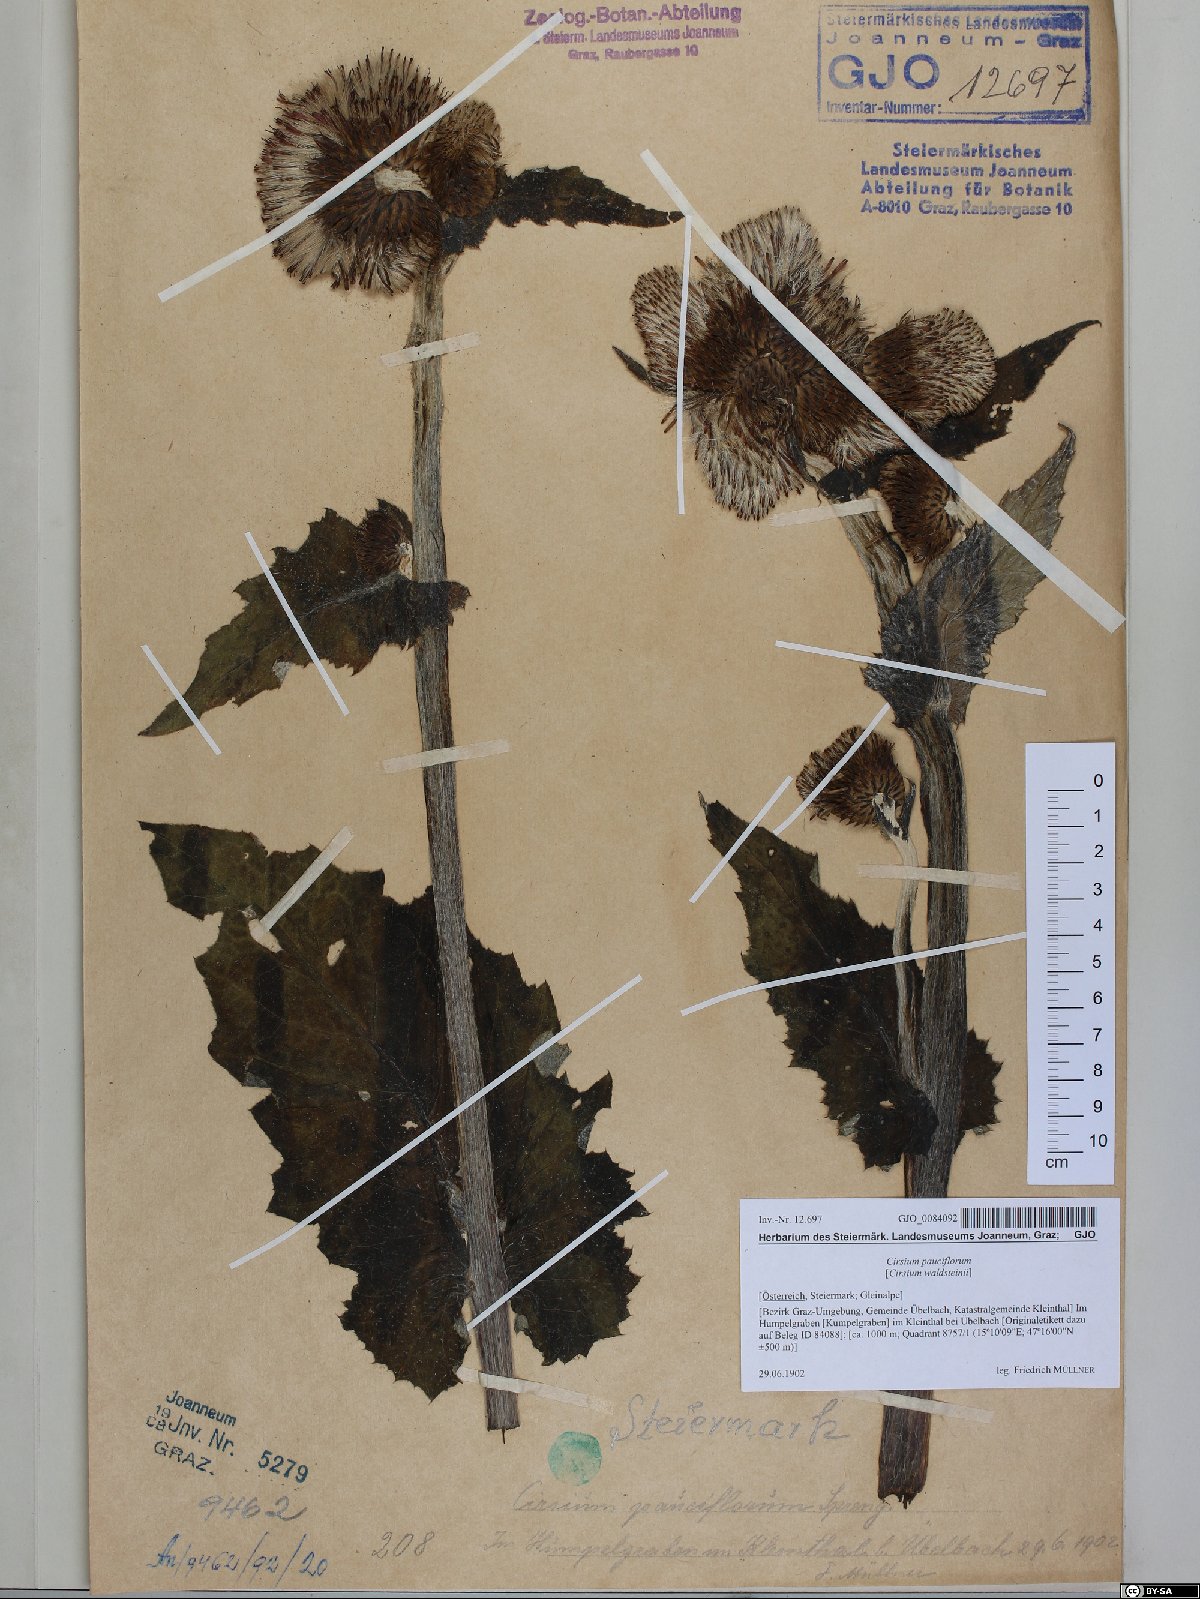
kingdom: Plantae
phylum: Tracheophyta
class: Magnoliopsida
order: Asterales
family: Asteraceae
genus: Cirsium
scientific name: Cirsium greimleri
